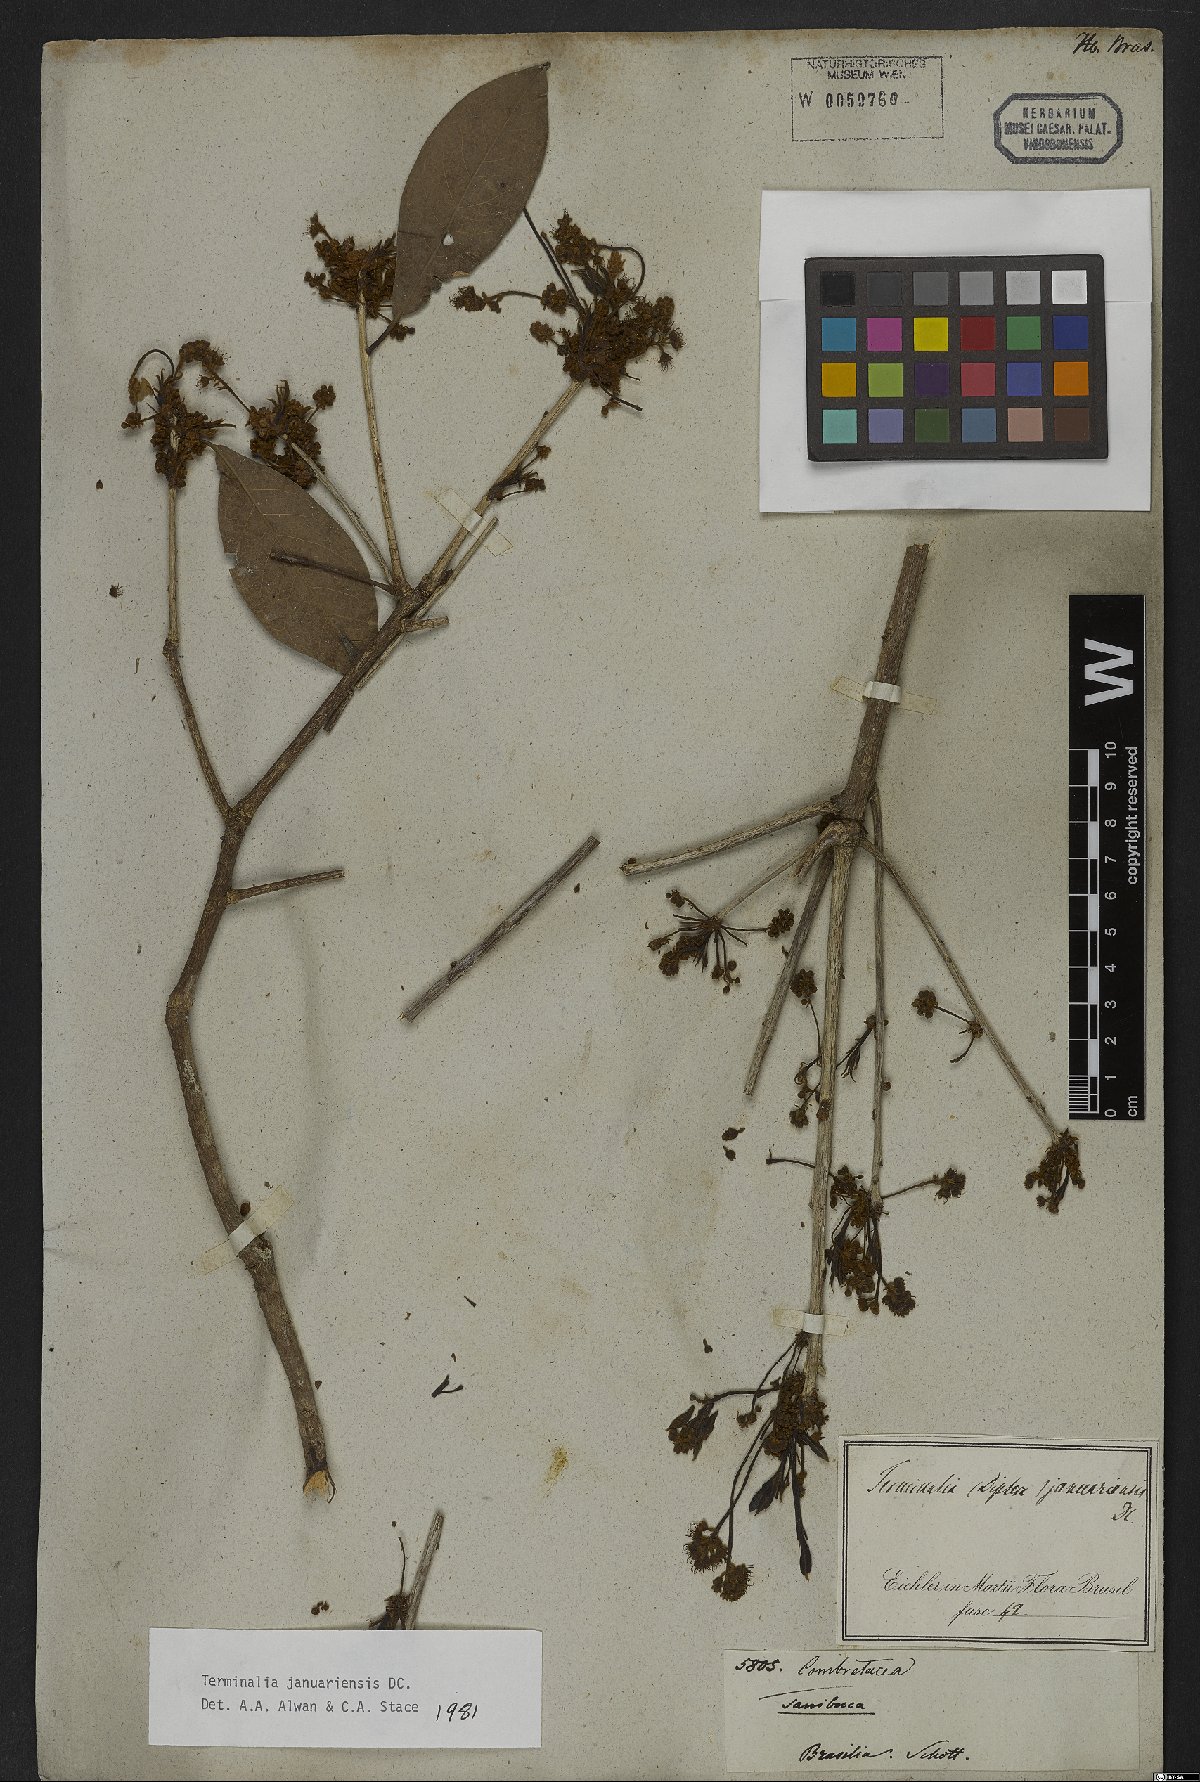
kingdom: Plantae
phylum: Tracheophyta
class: Magnoliopsida
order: Myrtales
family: Combretaceae
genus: Terminalia
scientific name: Terminalia januariensis
